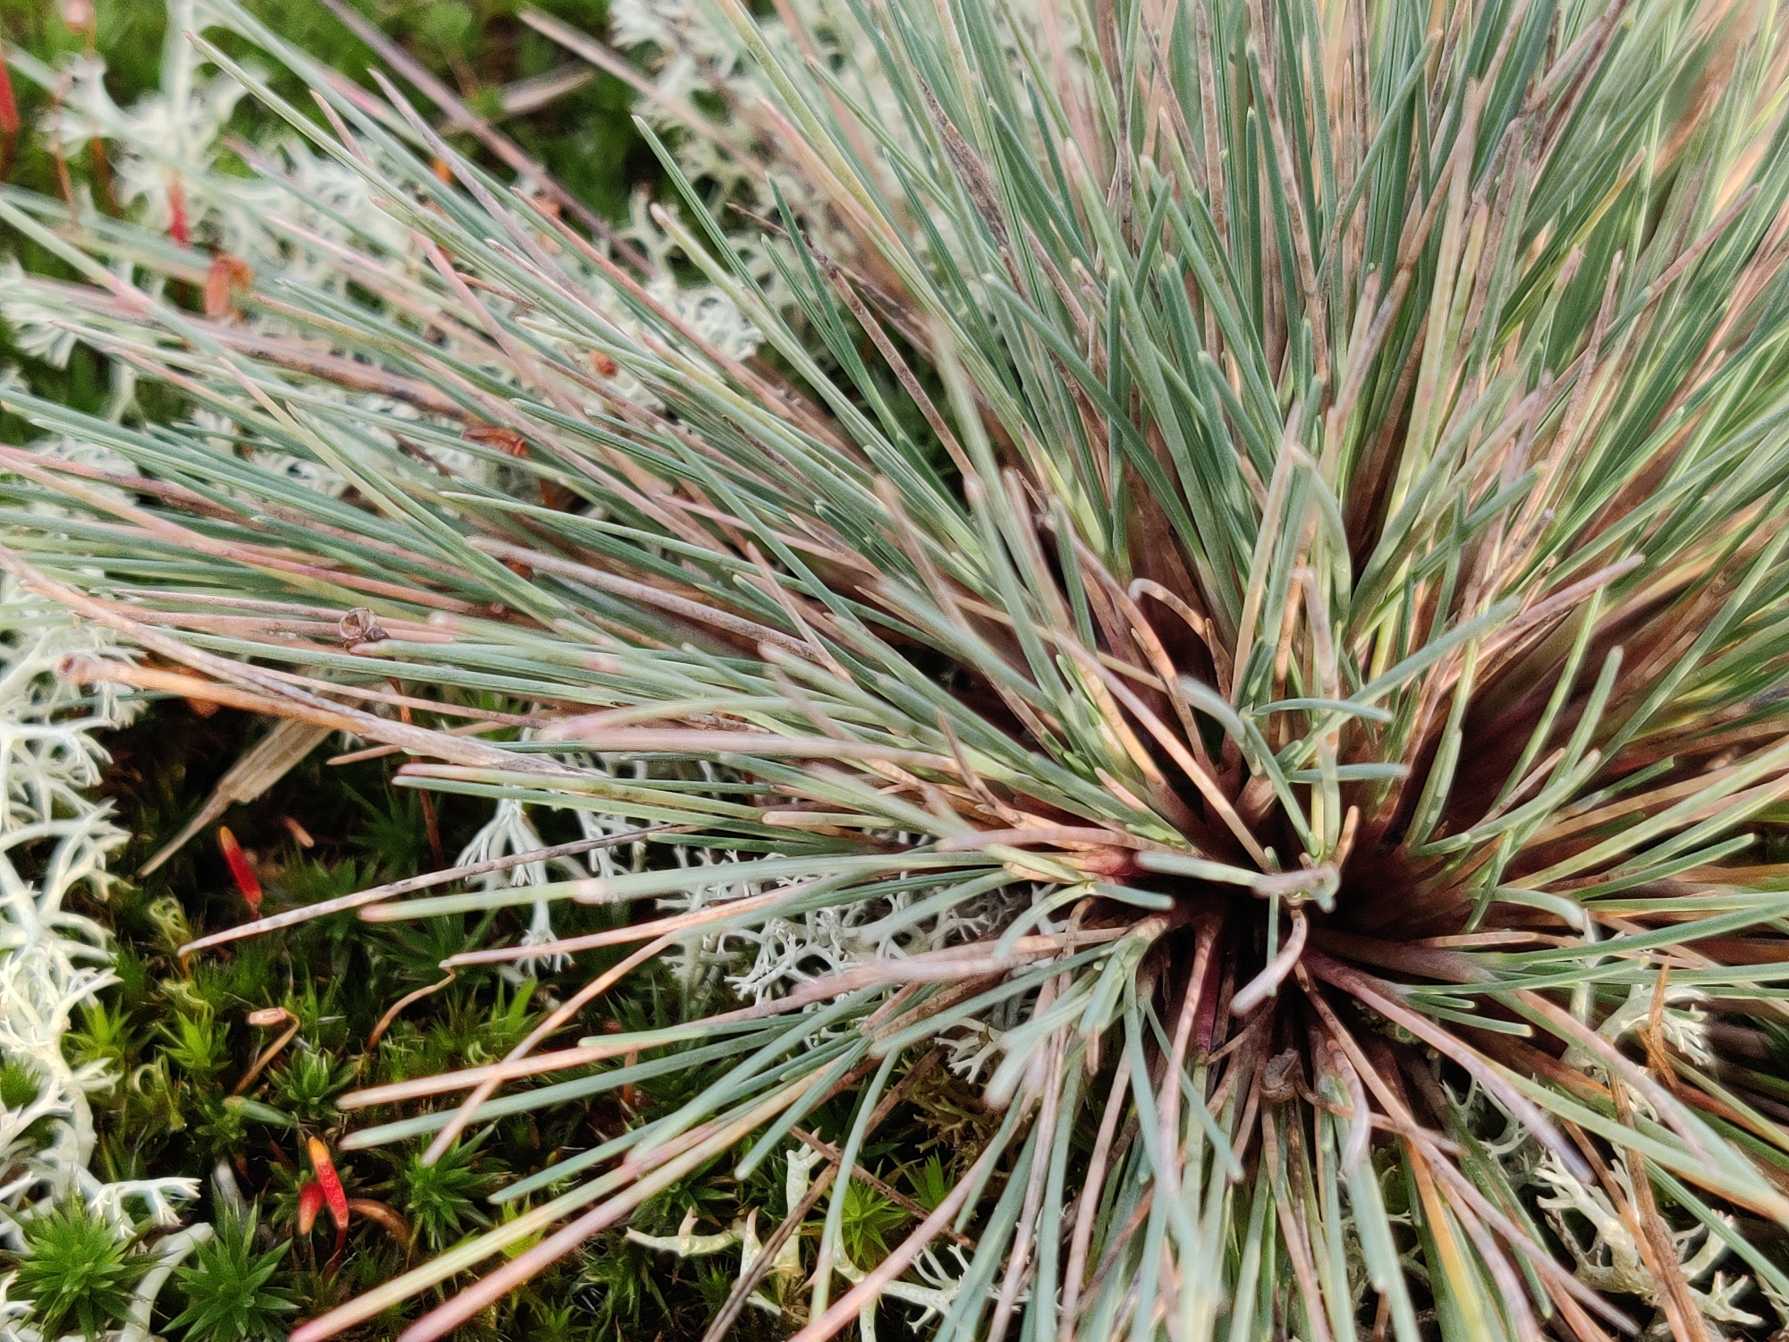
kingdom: Plantae
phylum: Tracheophyta
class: Liliopsida
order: Poales
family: Poaceae
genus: Corynephorus
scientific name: Corynephorus canescens
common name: Sandskæg
